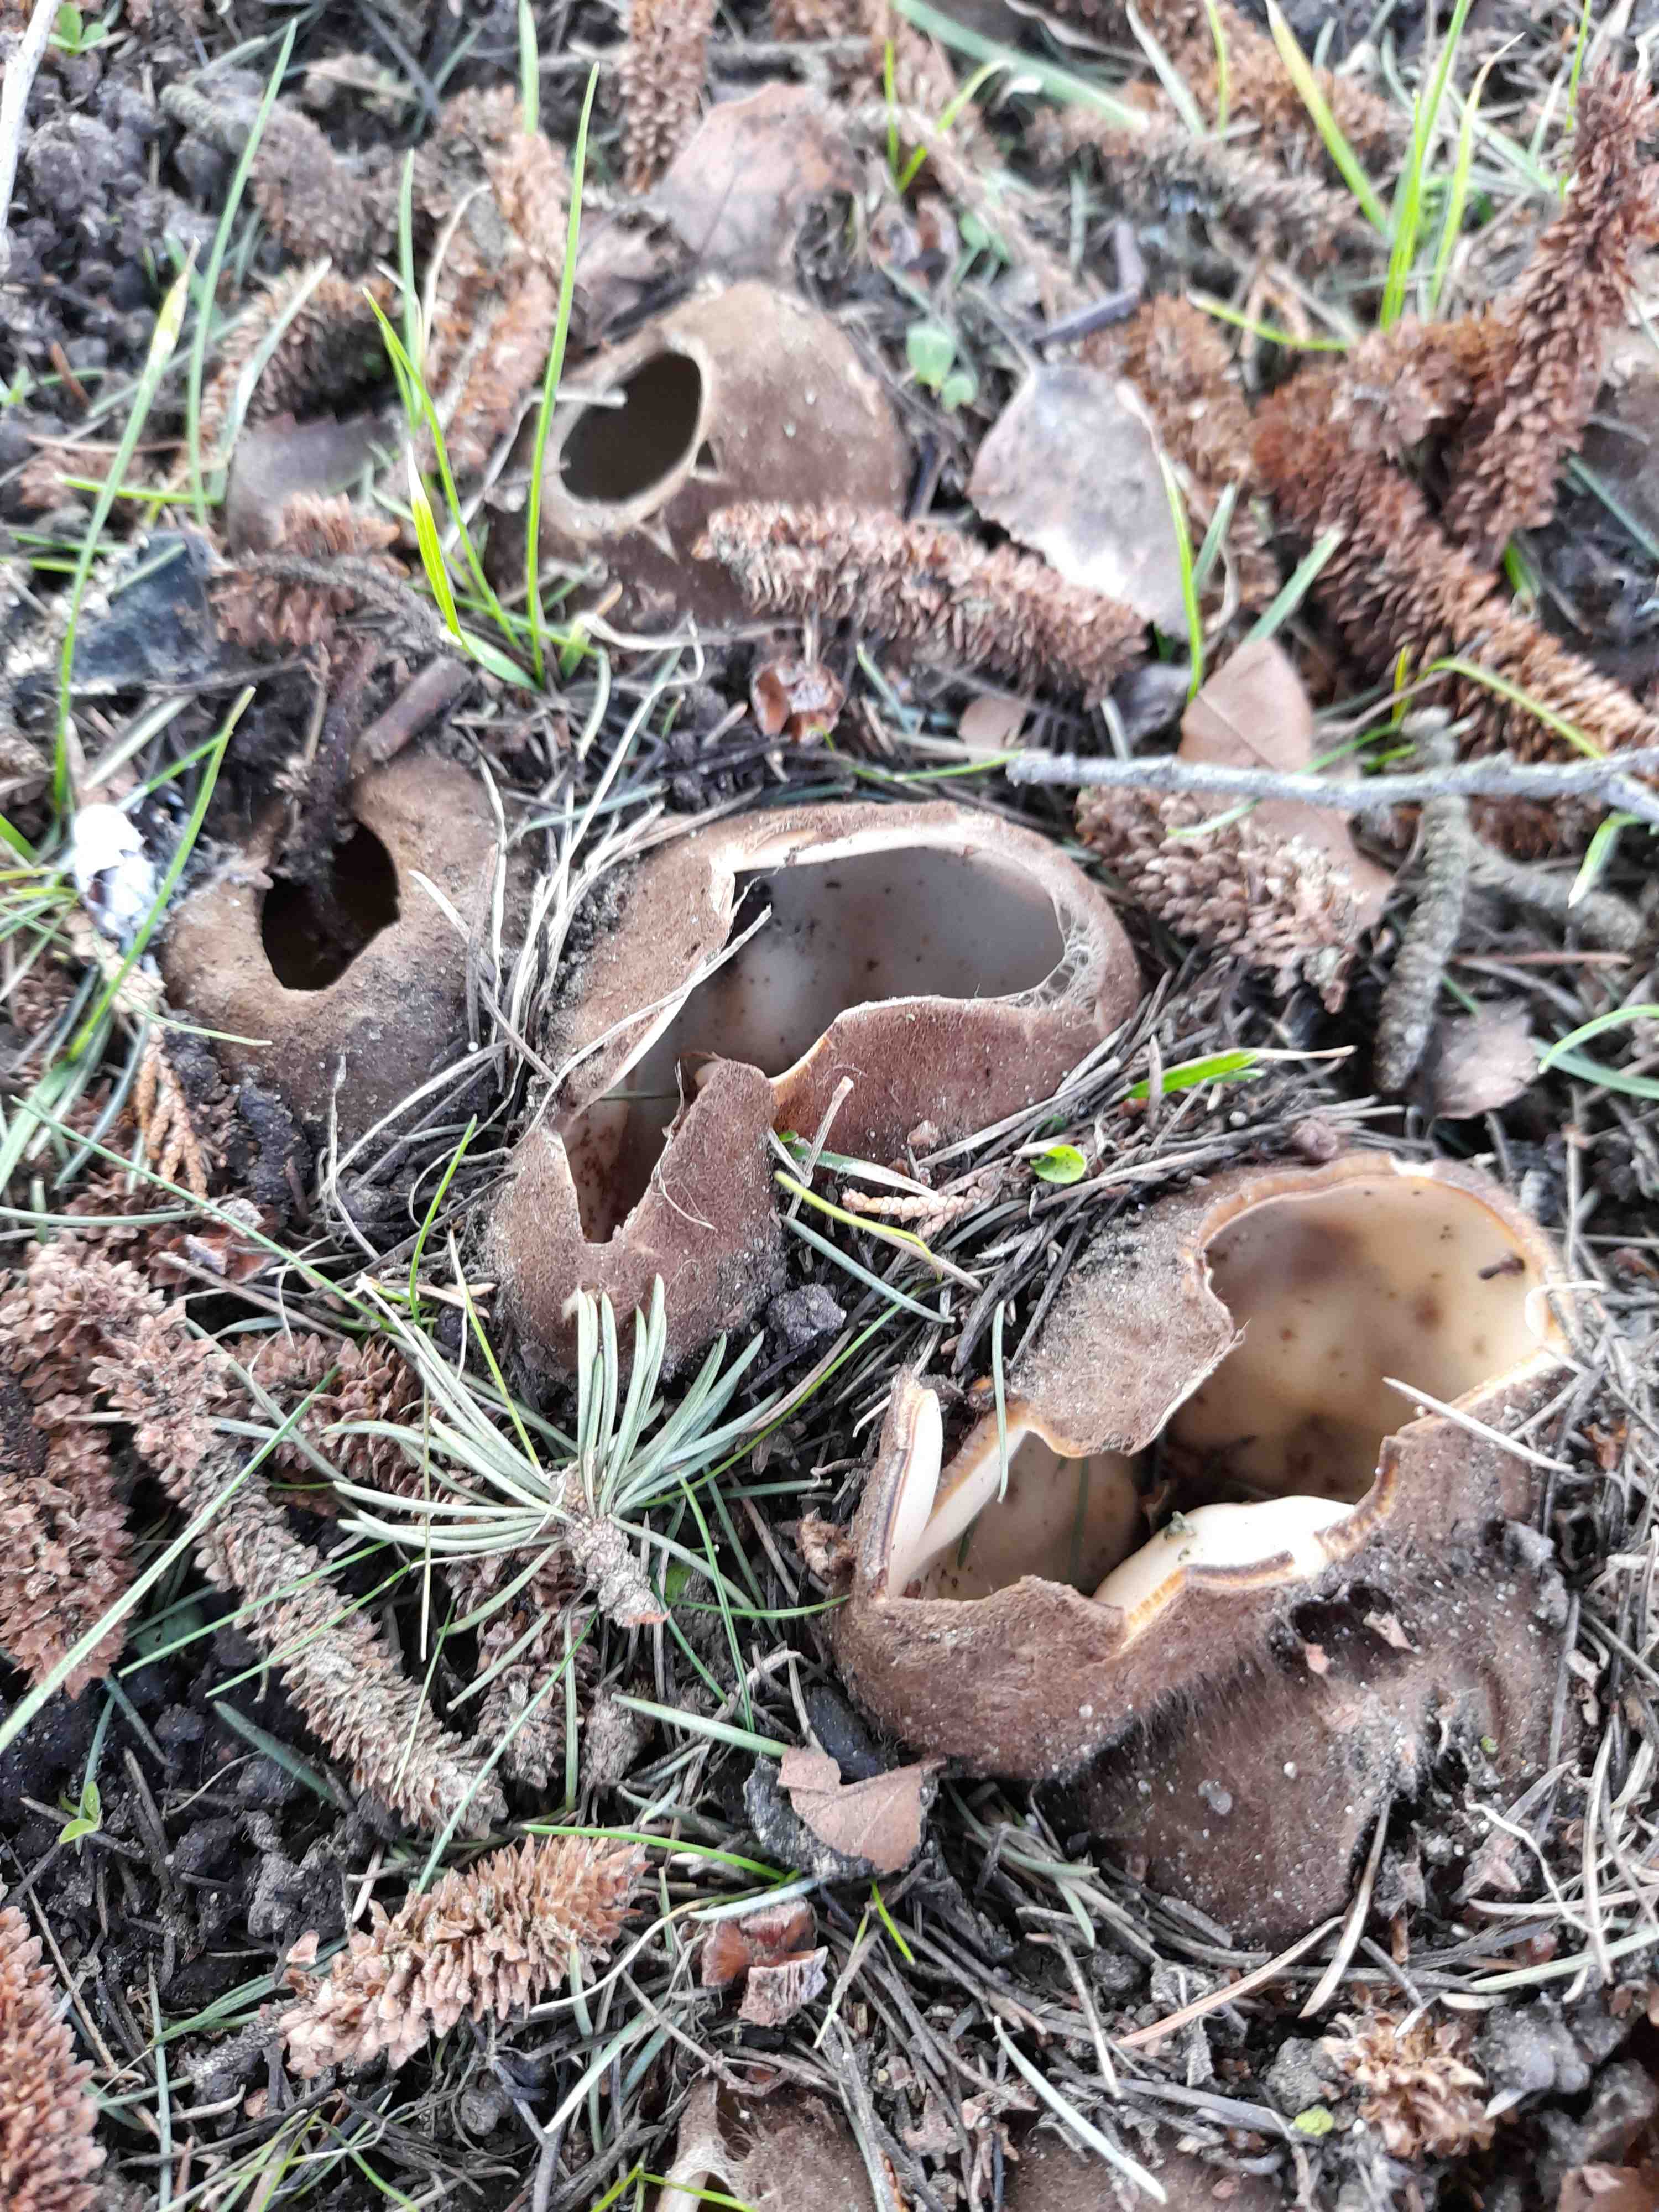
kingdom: Fungi
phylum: Ascomycota
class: Pezizomycetes
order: Pezizales
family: Pyronemataceae
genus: Geopora
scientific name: Geopora sumneriana
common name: vår-jordbæger
